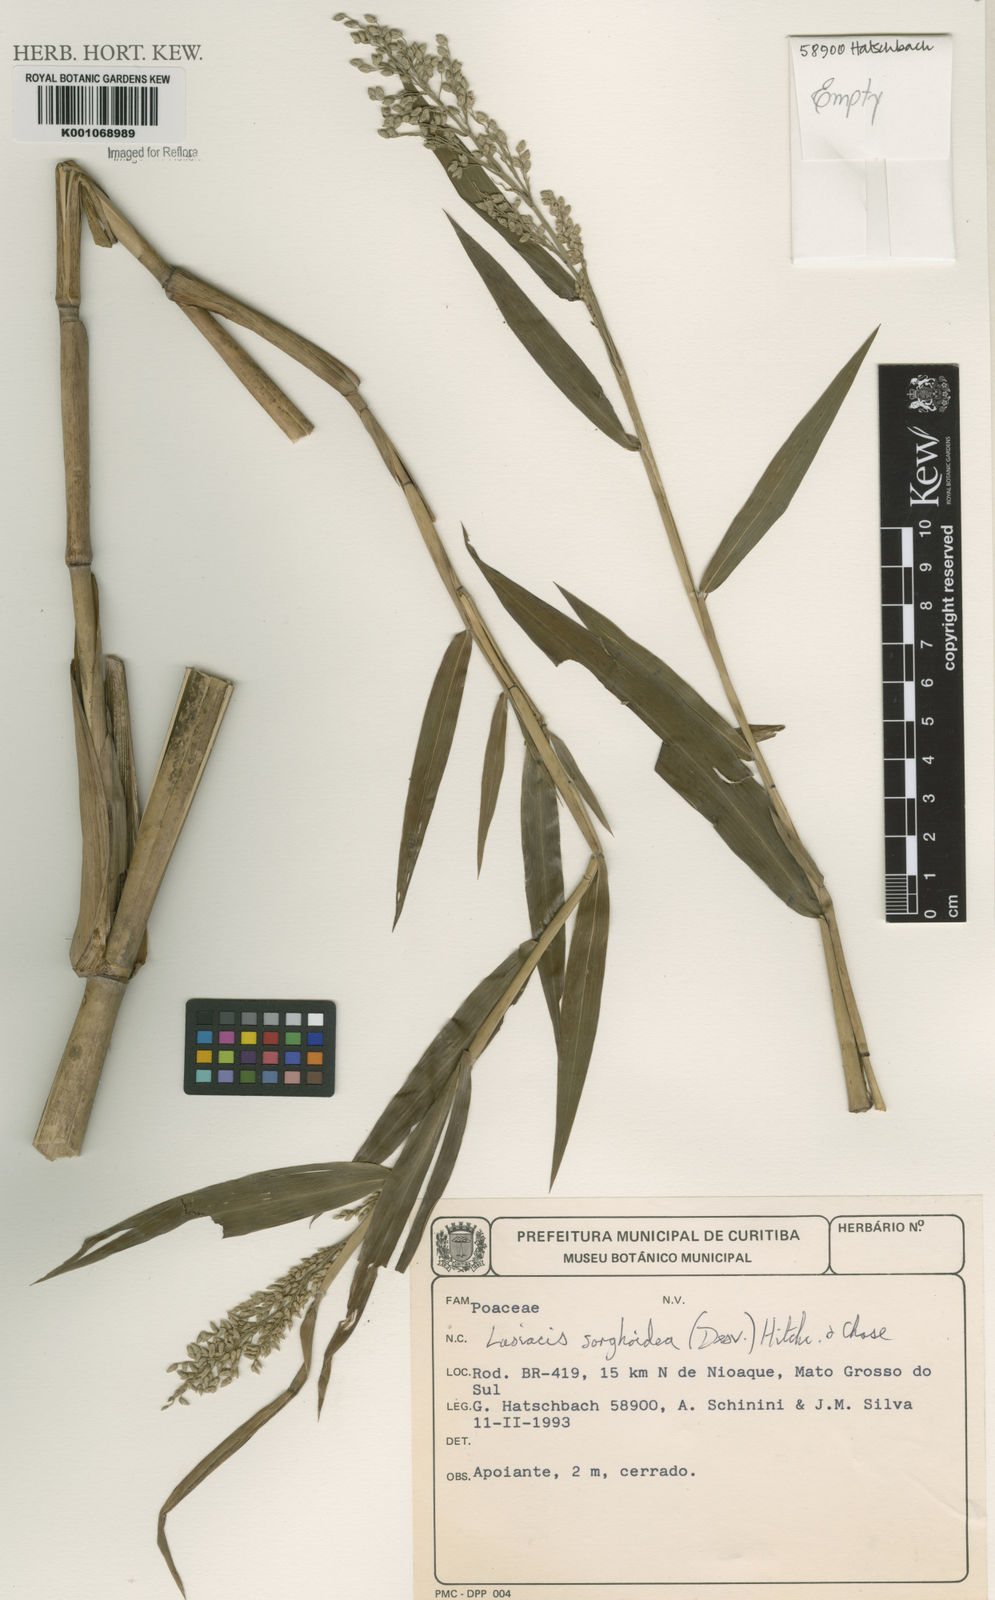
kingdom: Plantae
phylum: Tracheophyta
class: Liliopsida
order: Poales
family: Poaceae
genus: Lasiacis
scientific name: Lasiacis maculata
